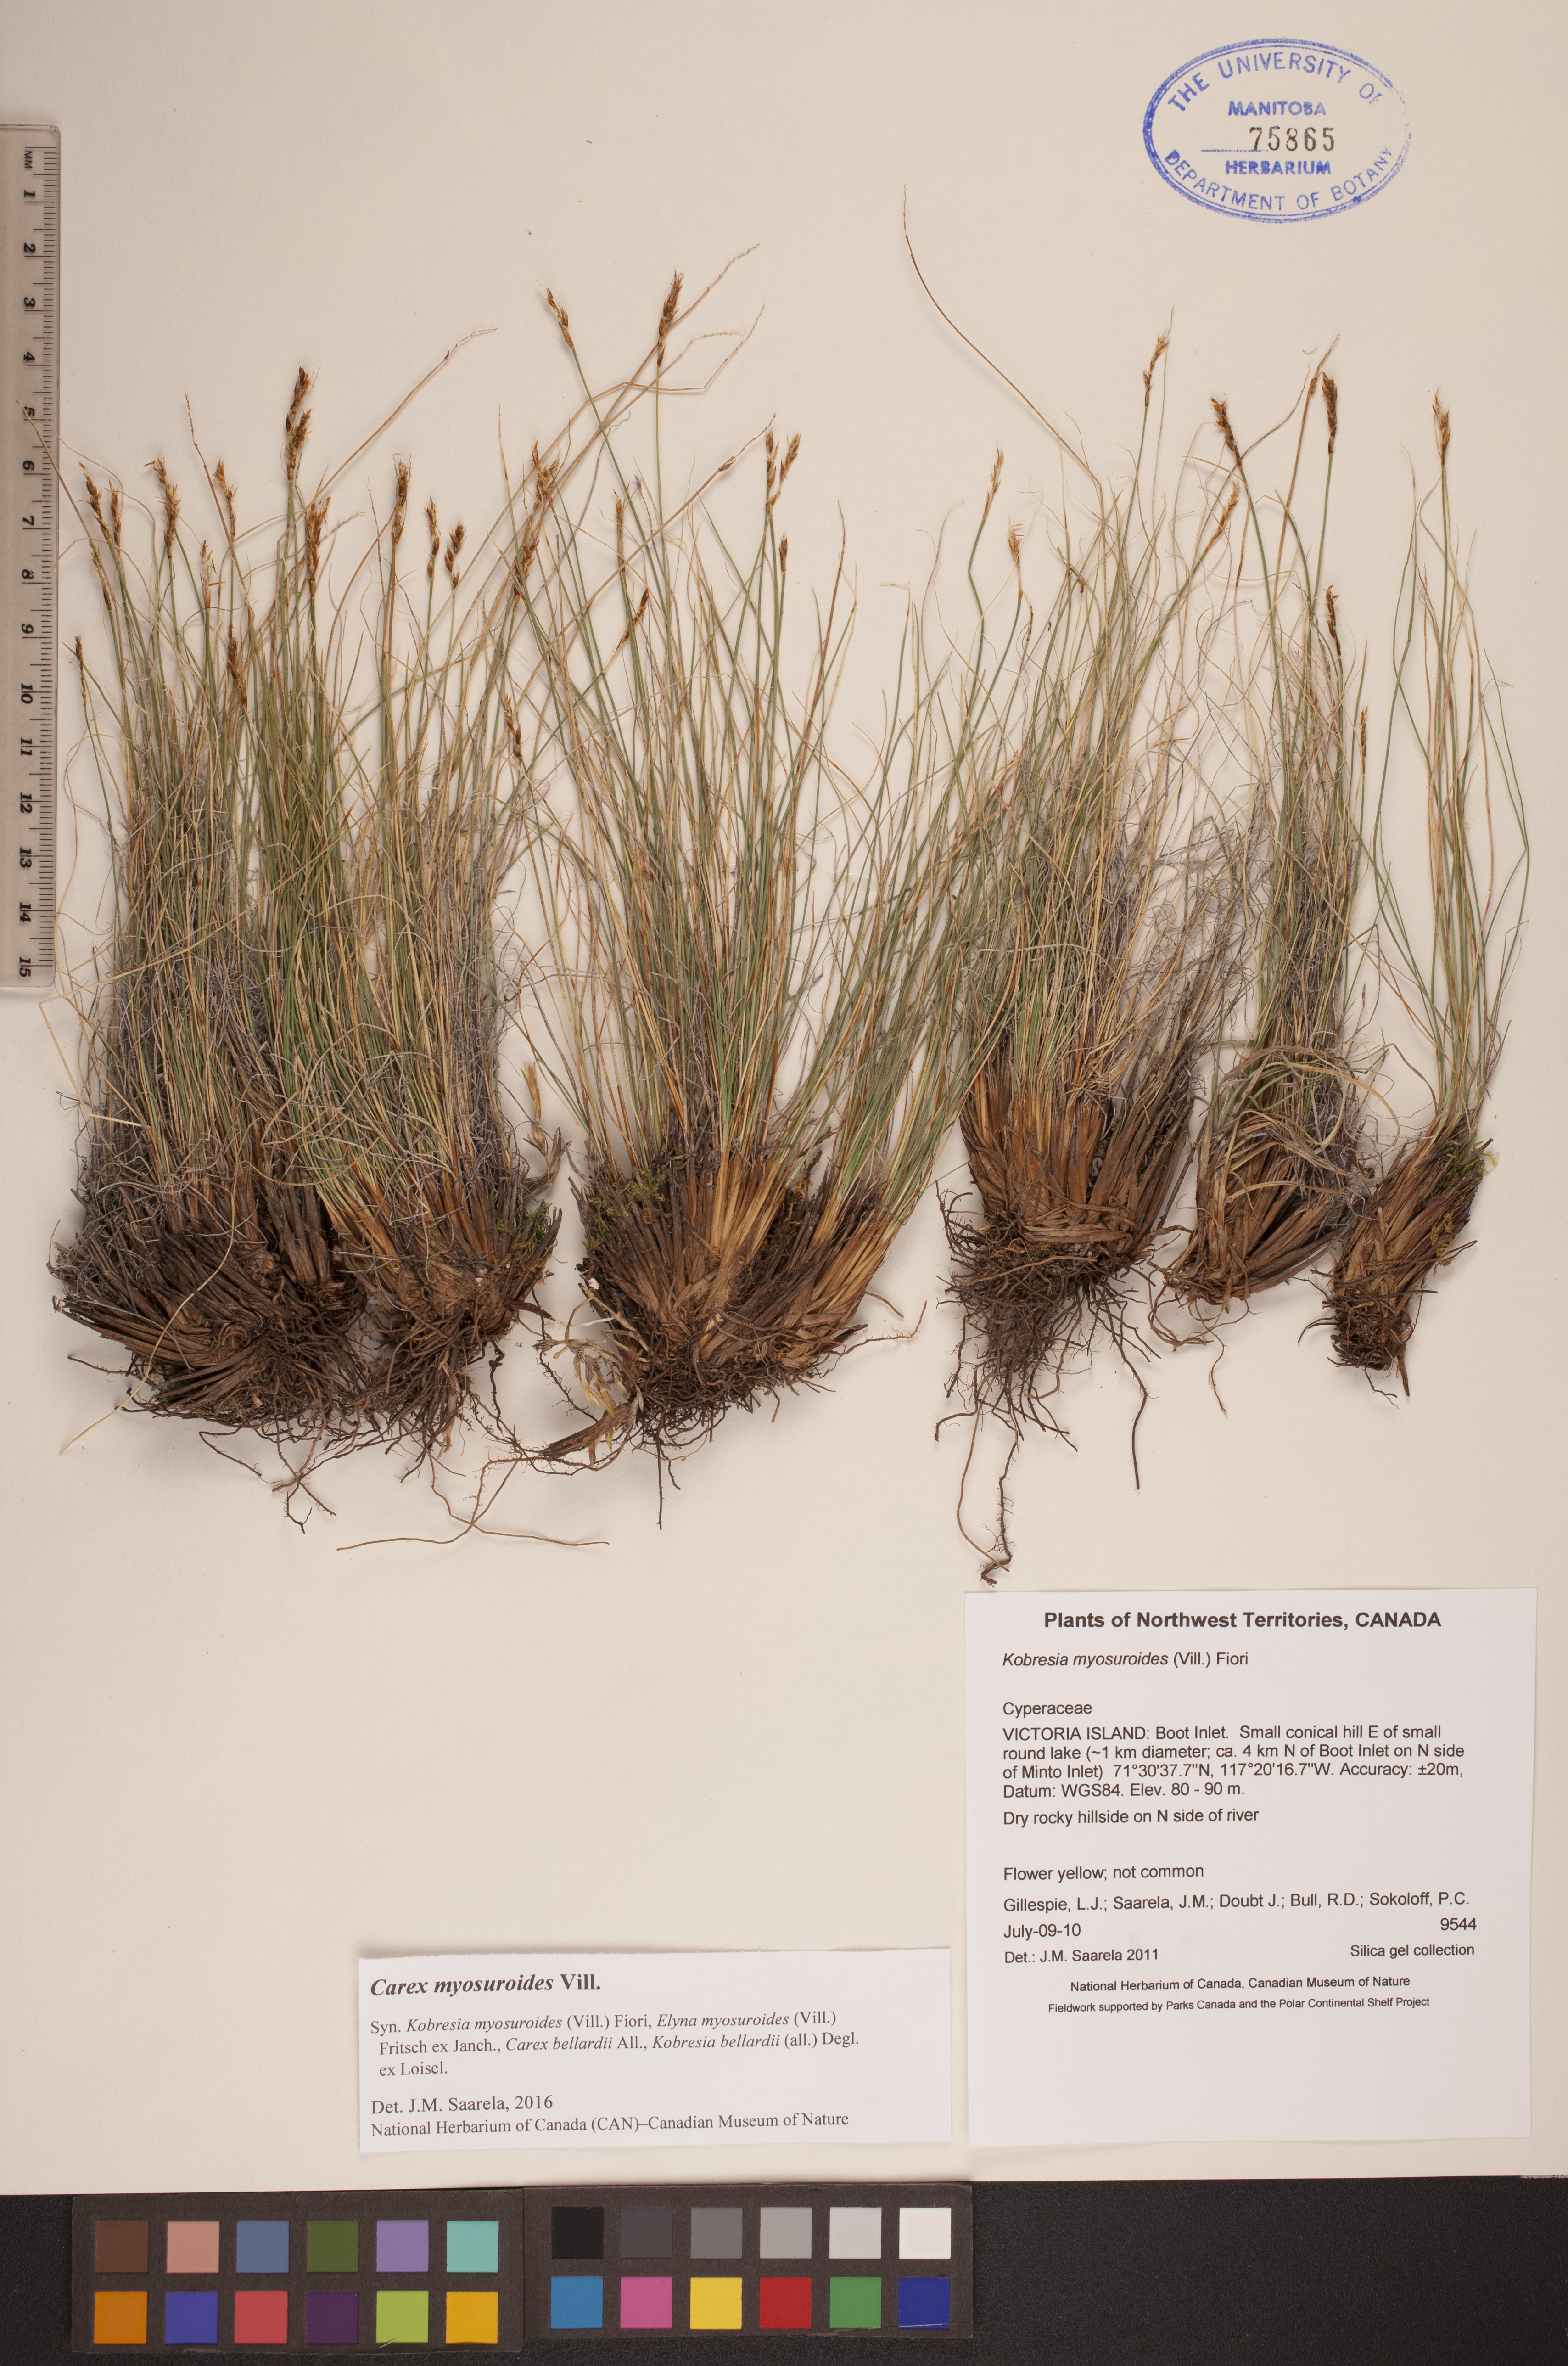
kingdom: Plantae
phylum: Tracheophyta
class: Liliopsida
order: Poales
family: Cyperaceae
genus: Carex
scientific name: Carex myosuroides
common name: Bellard's bog sedge
